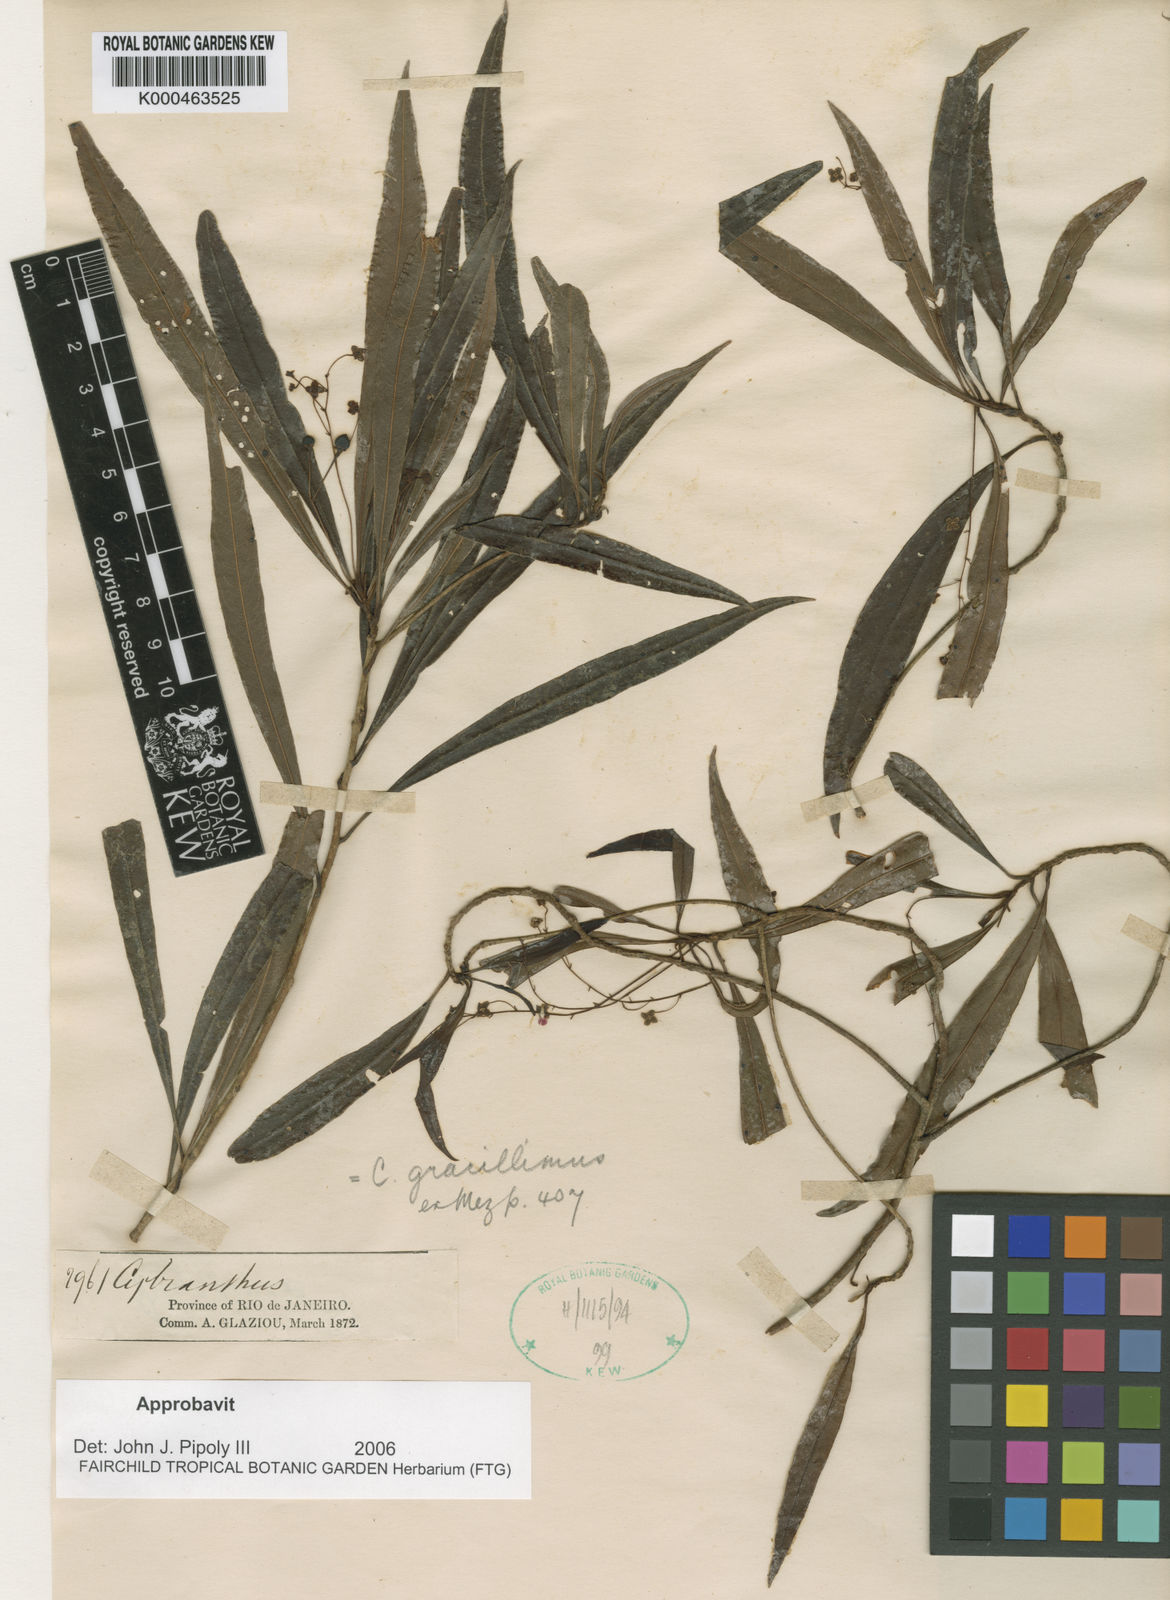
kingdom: Plantae
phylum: Tracheophyta
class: Magnoliopsida
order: Ericales
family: Primulaceae
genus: Cybianthus
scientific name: Cybianthus gracillimus
